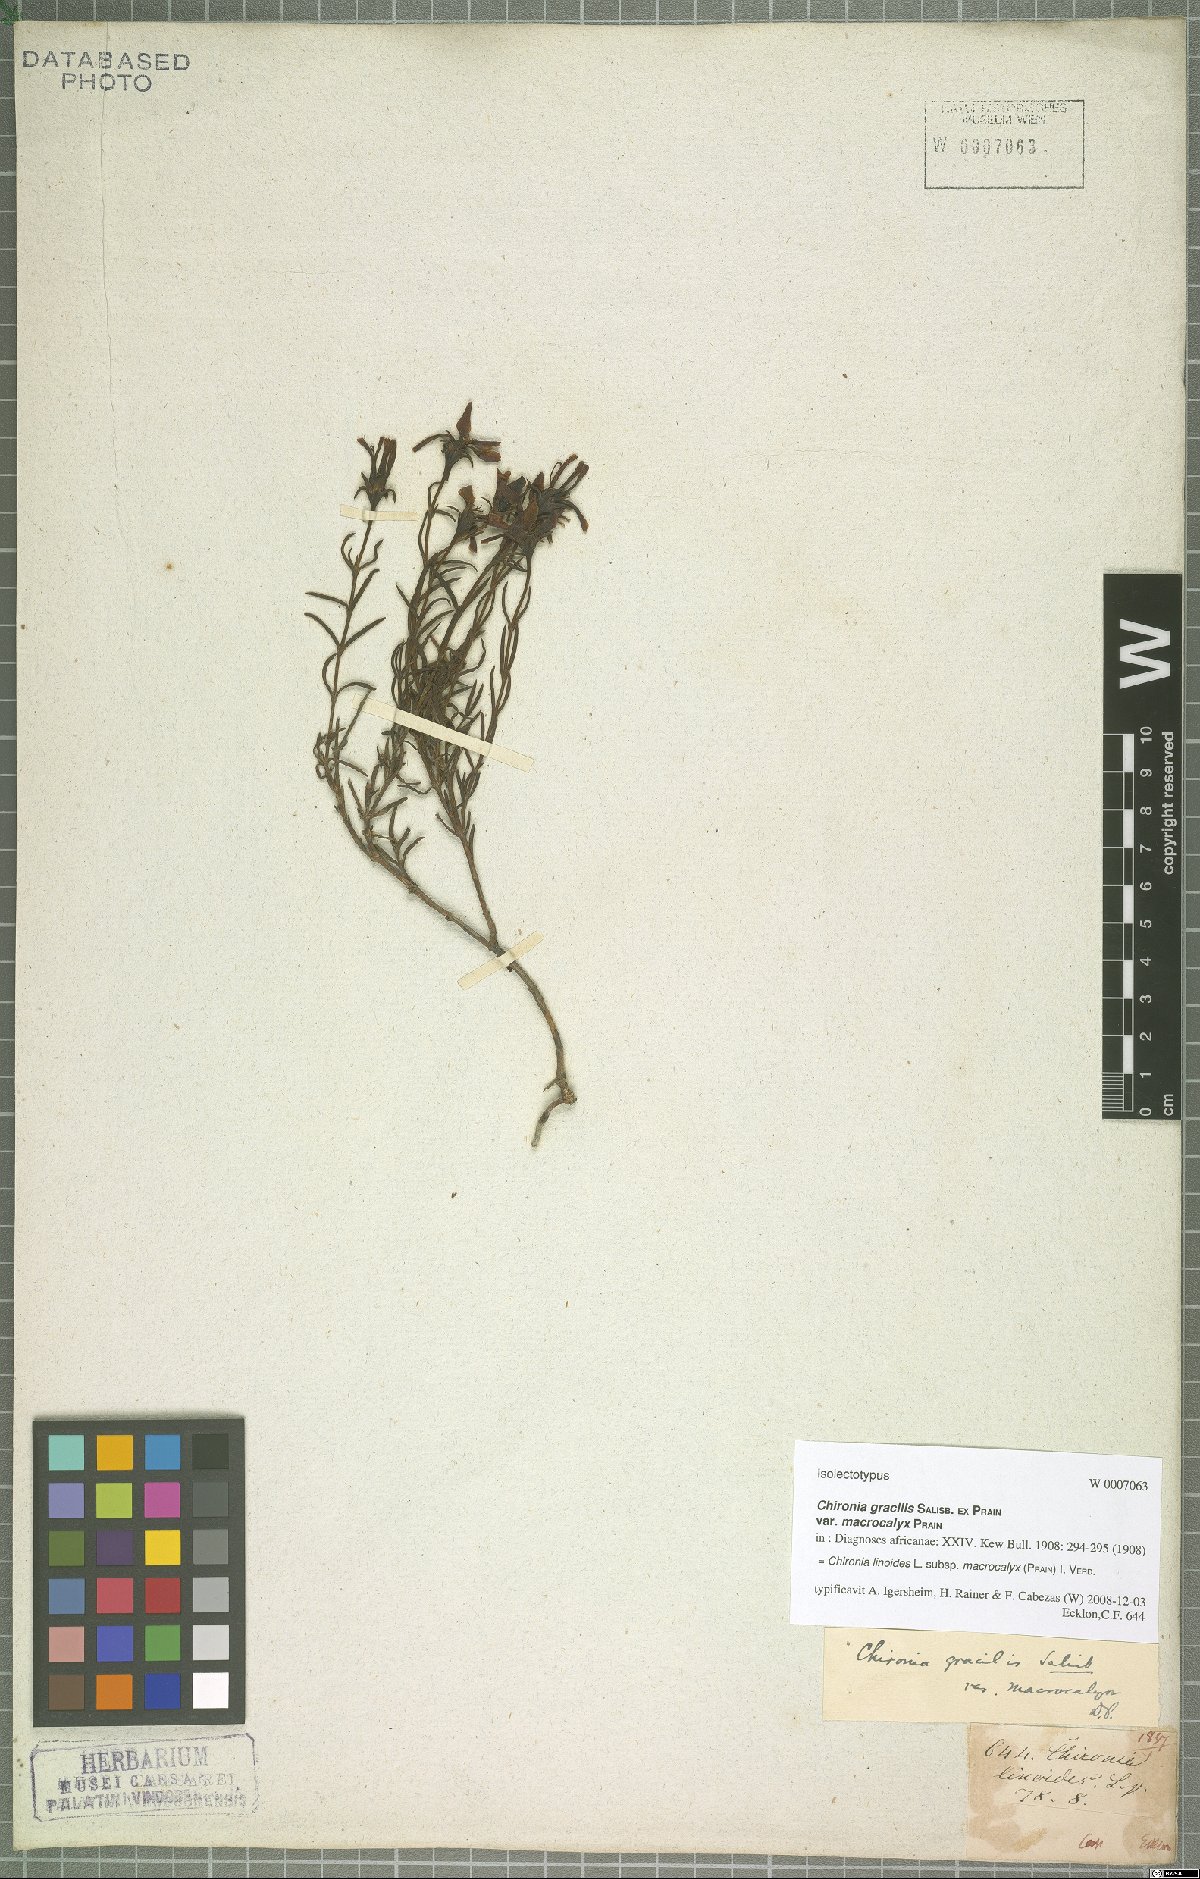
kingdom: Plantae
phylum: Tracheophyta
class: Magnoliopsida
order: Gentianales
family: Gentianaceae
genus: Chironia
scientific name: Chironia linoides
